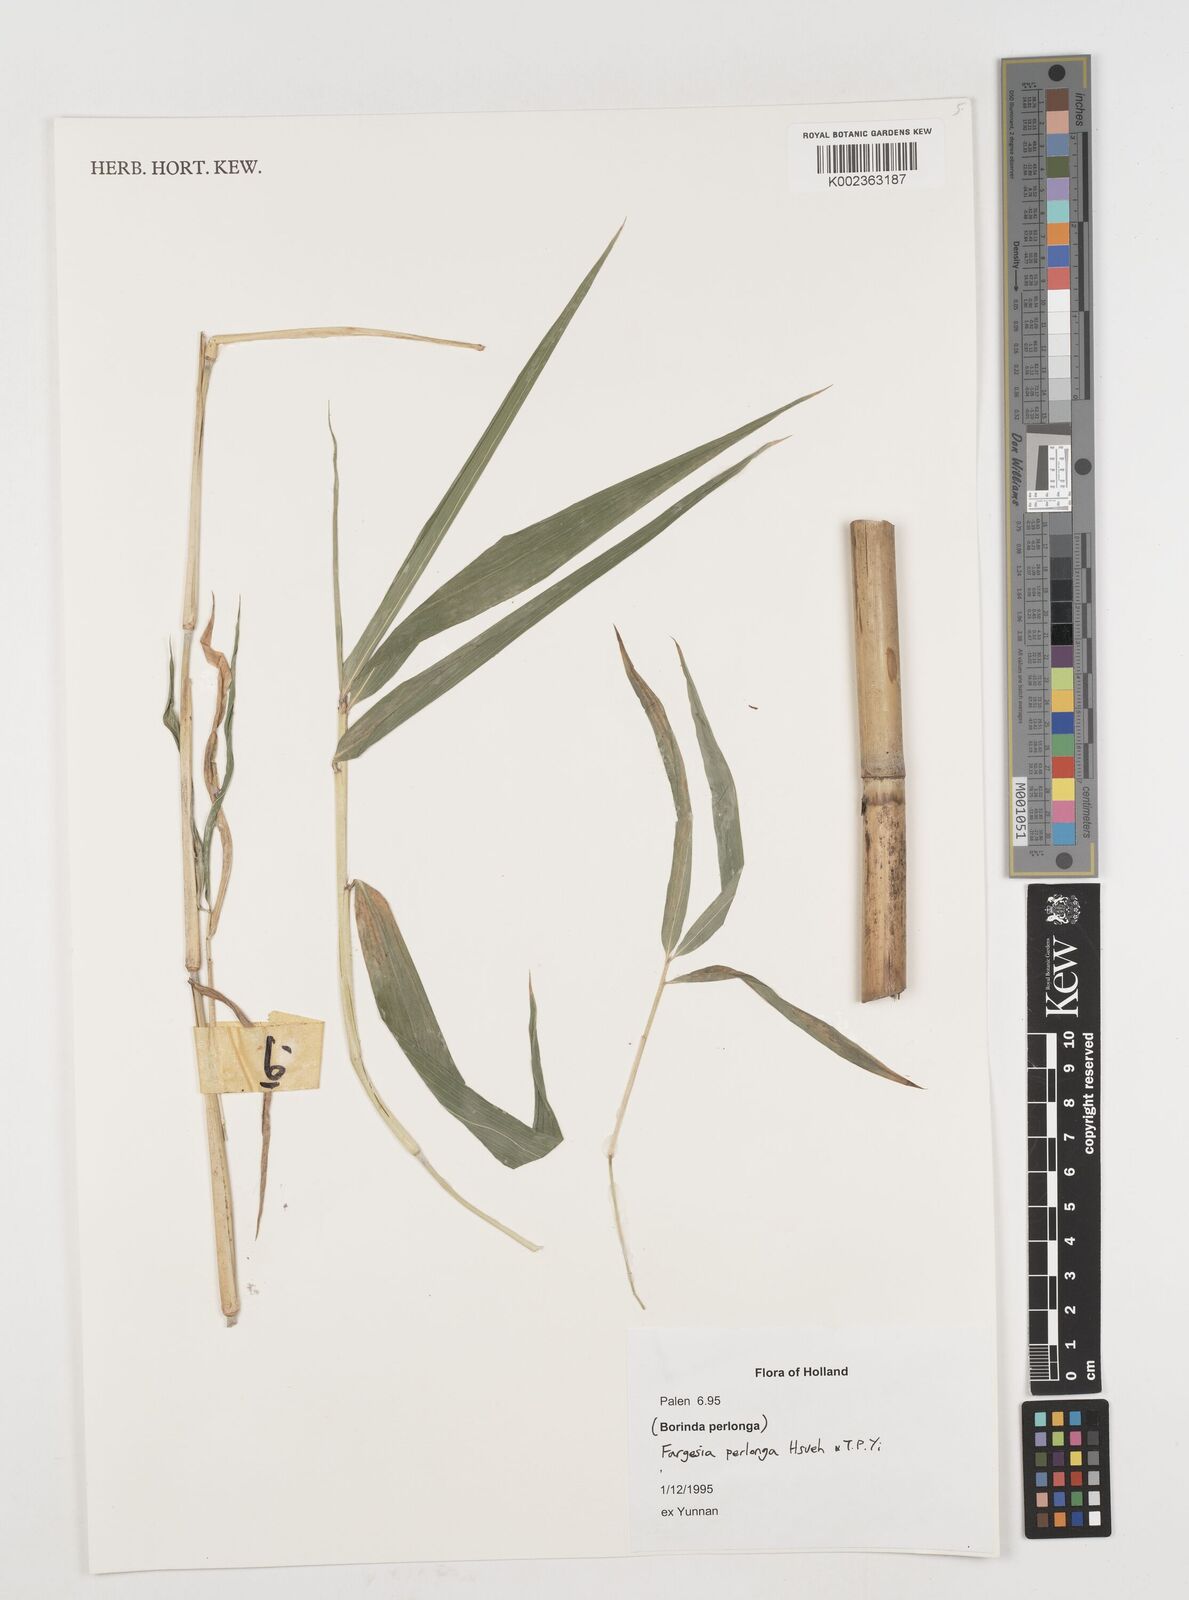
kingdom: Plantae
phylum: Tracheophyta
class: Liliopsida
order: Poales
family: Poaceae
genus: Borinda
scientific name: Borinda perlonga
